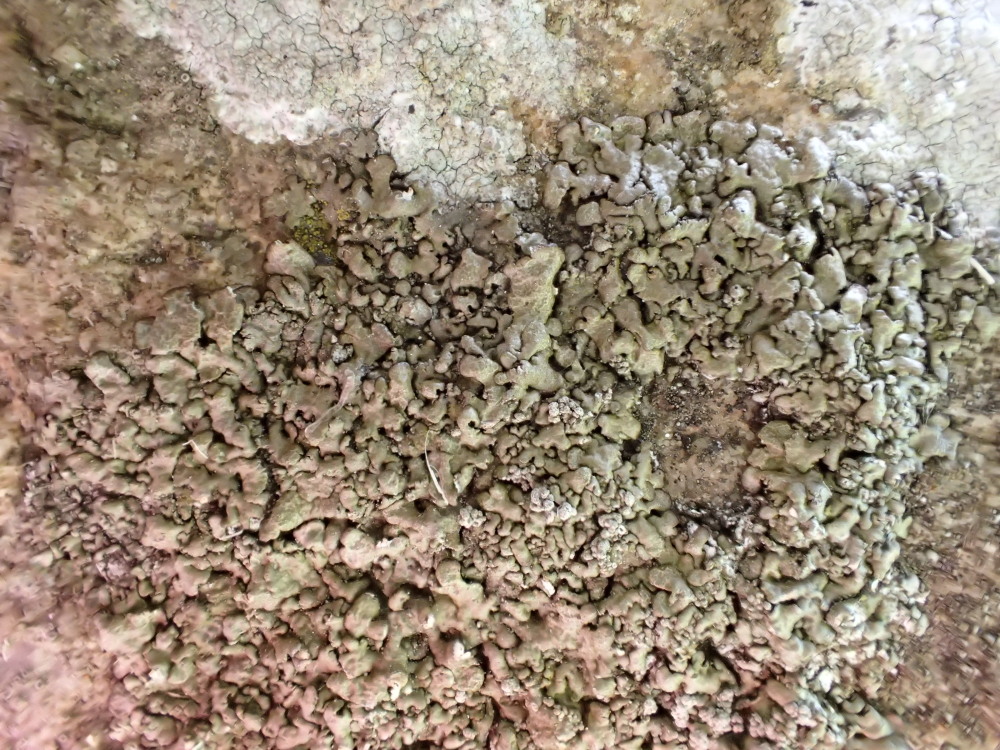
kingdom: Fungi
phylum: Ascomycota
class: Lecanoromycetes
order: Lecanorales
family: Parmeliaceae
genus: Xanthoparmelia
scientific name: Xanthoparmelia loxodes
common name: knudret skållav
